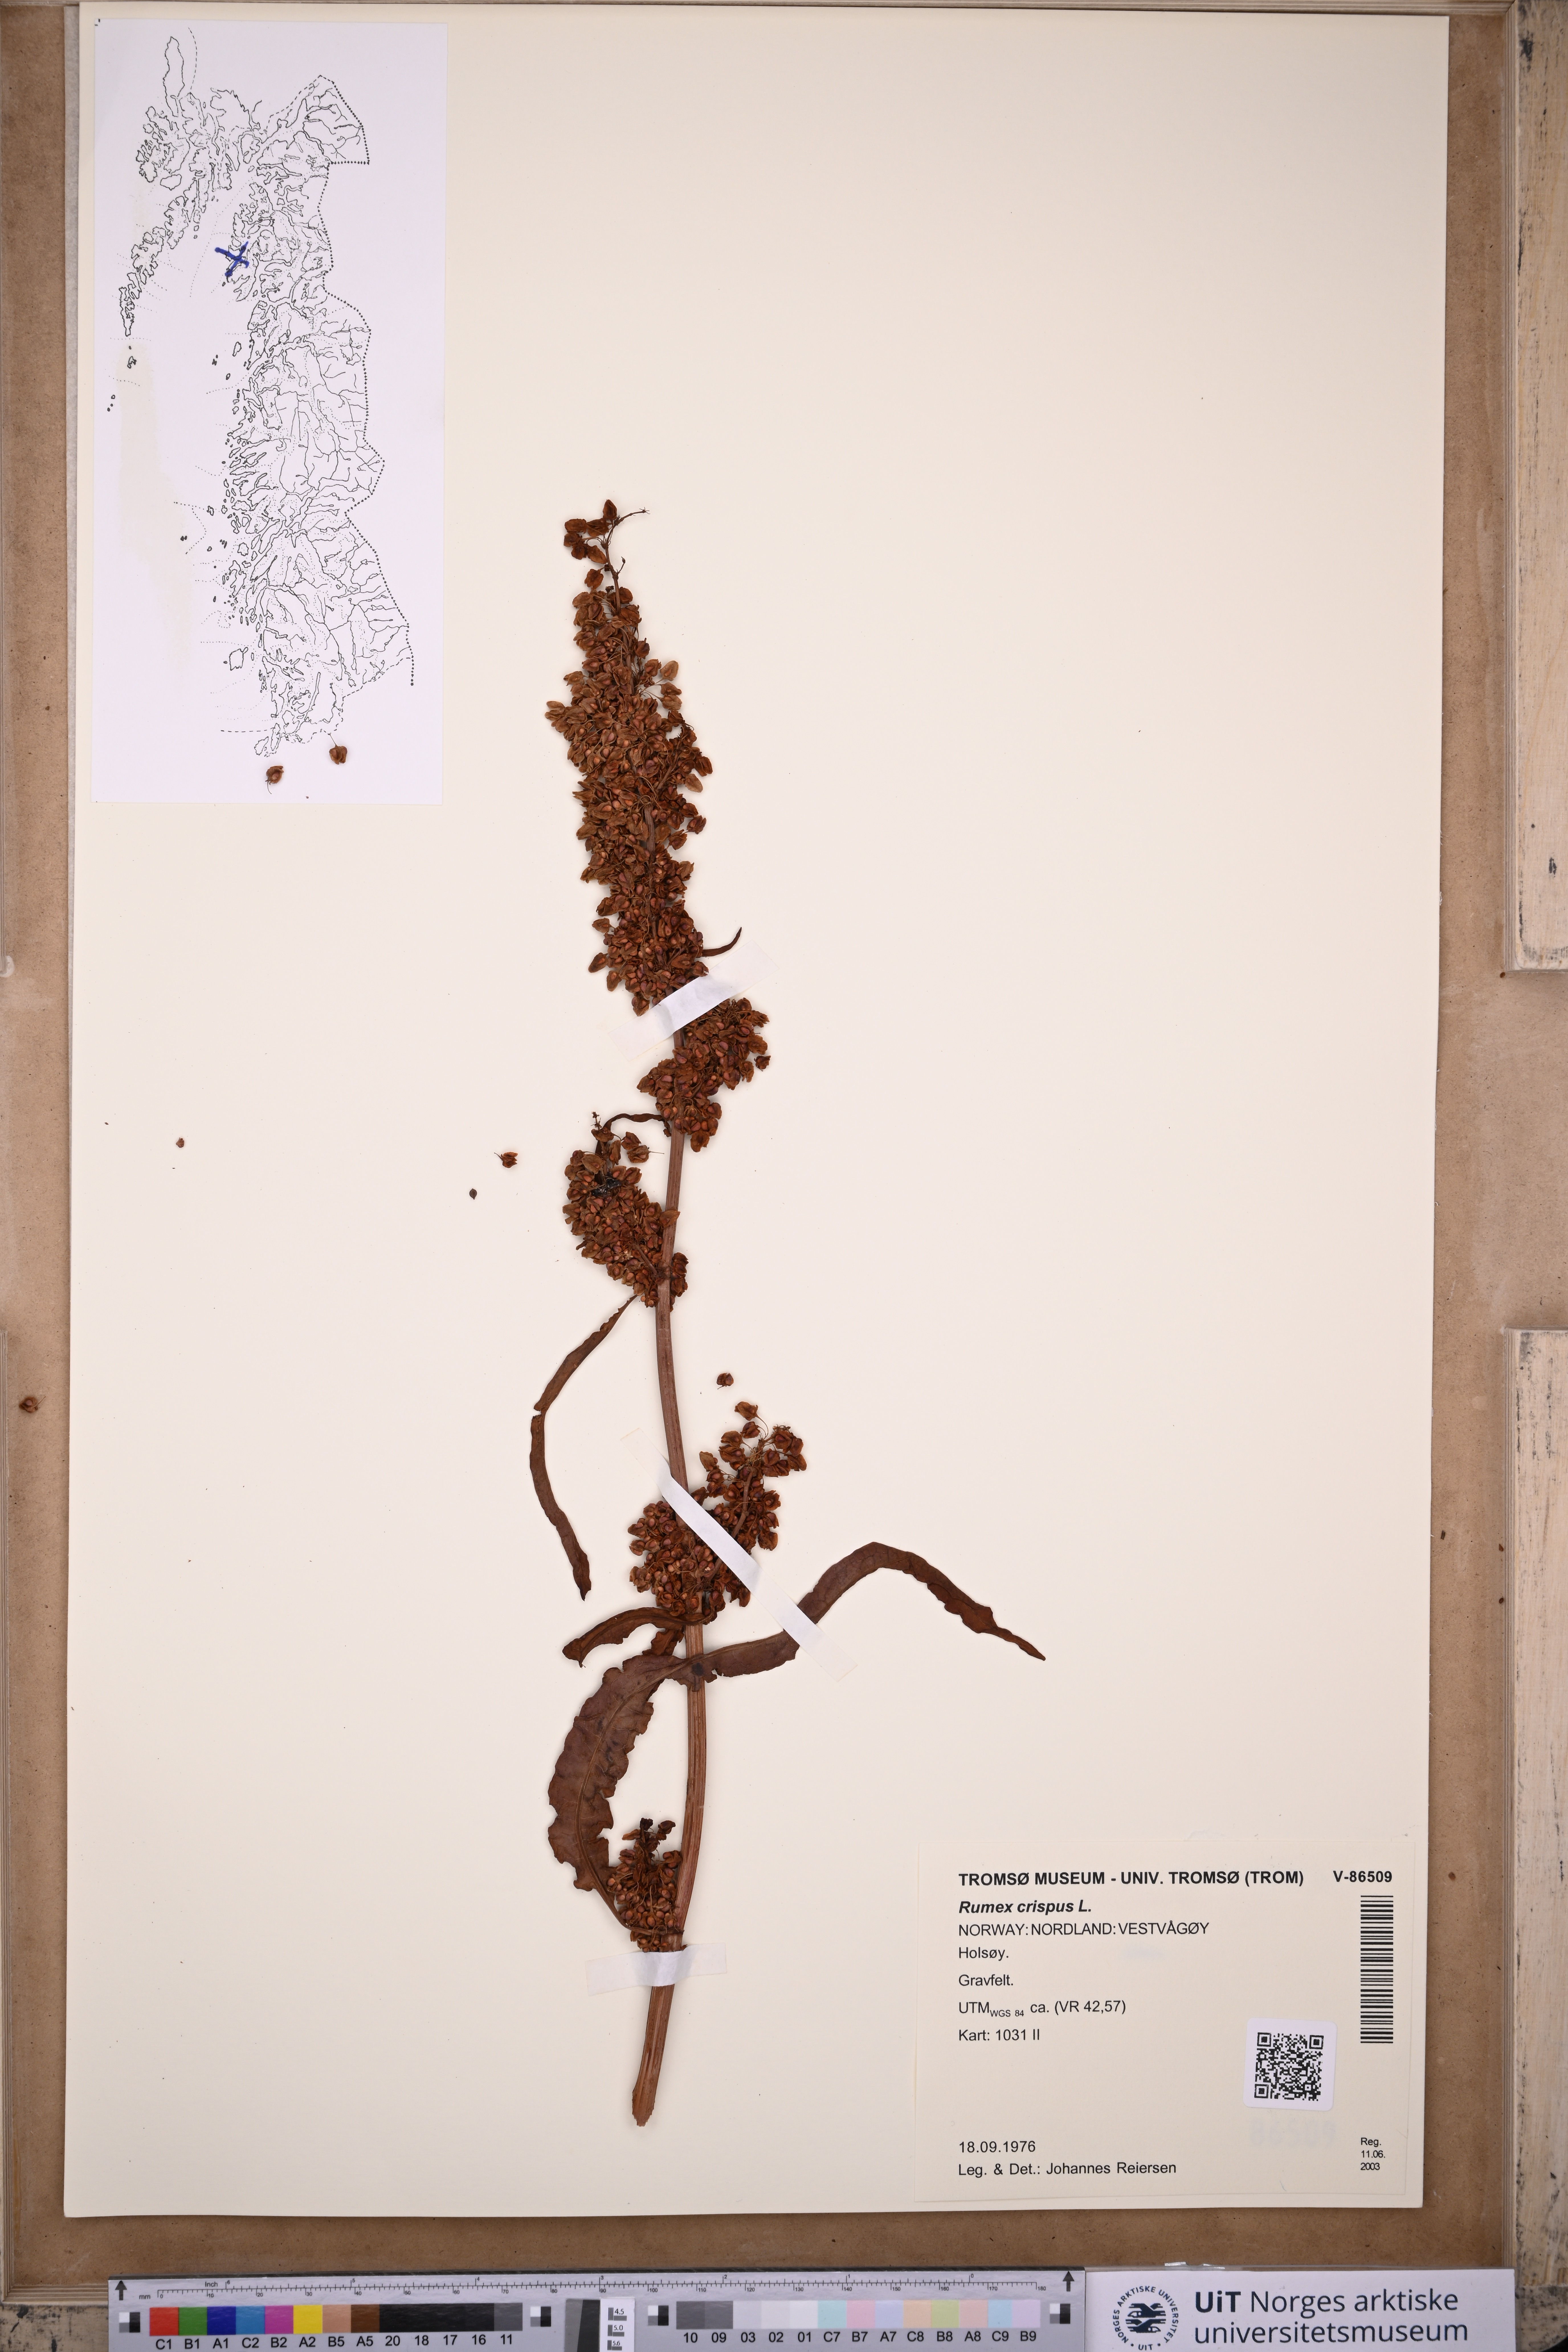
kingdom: Plantae
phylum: Tracheophyta
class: Magnoliopsida
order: Caryophyllales
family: Polygonaceae
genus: Rumex
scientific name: Rumex crispus
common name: Curled dock
